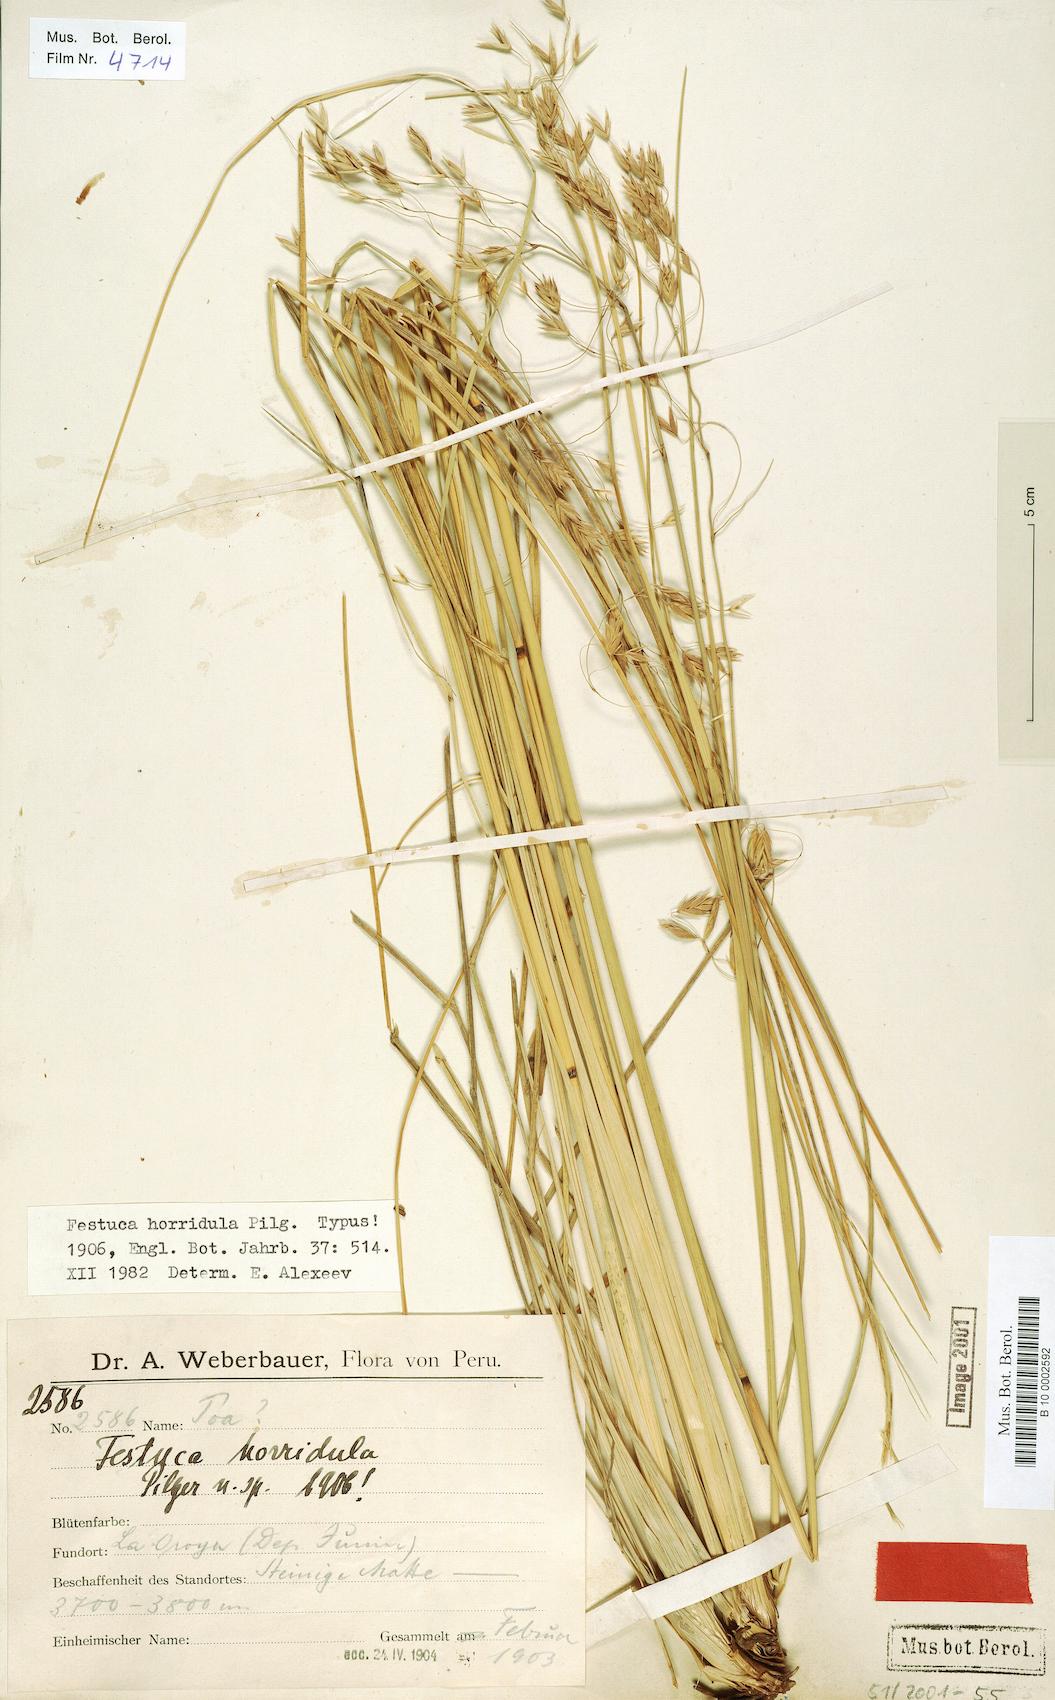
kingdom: Plantae
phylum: Tracheophyta
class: Liliopsida
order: Poales
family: Poaceae
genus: Festuca
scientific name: Festuca horridula
